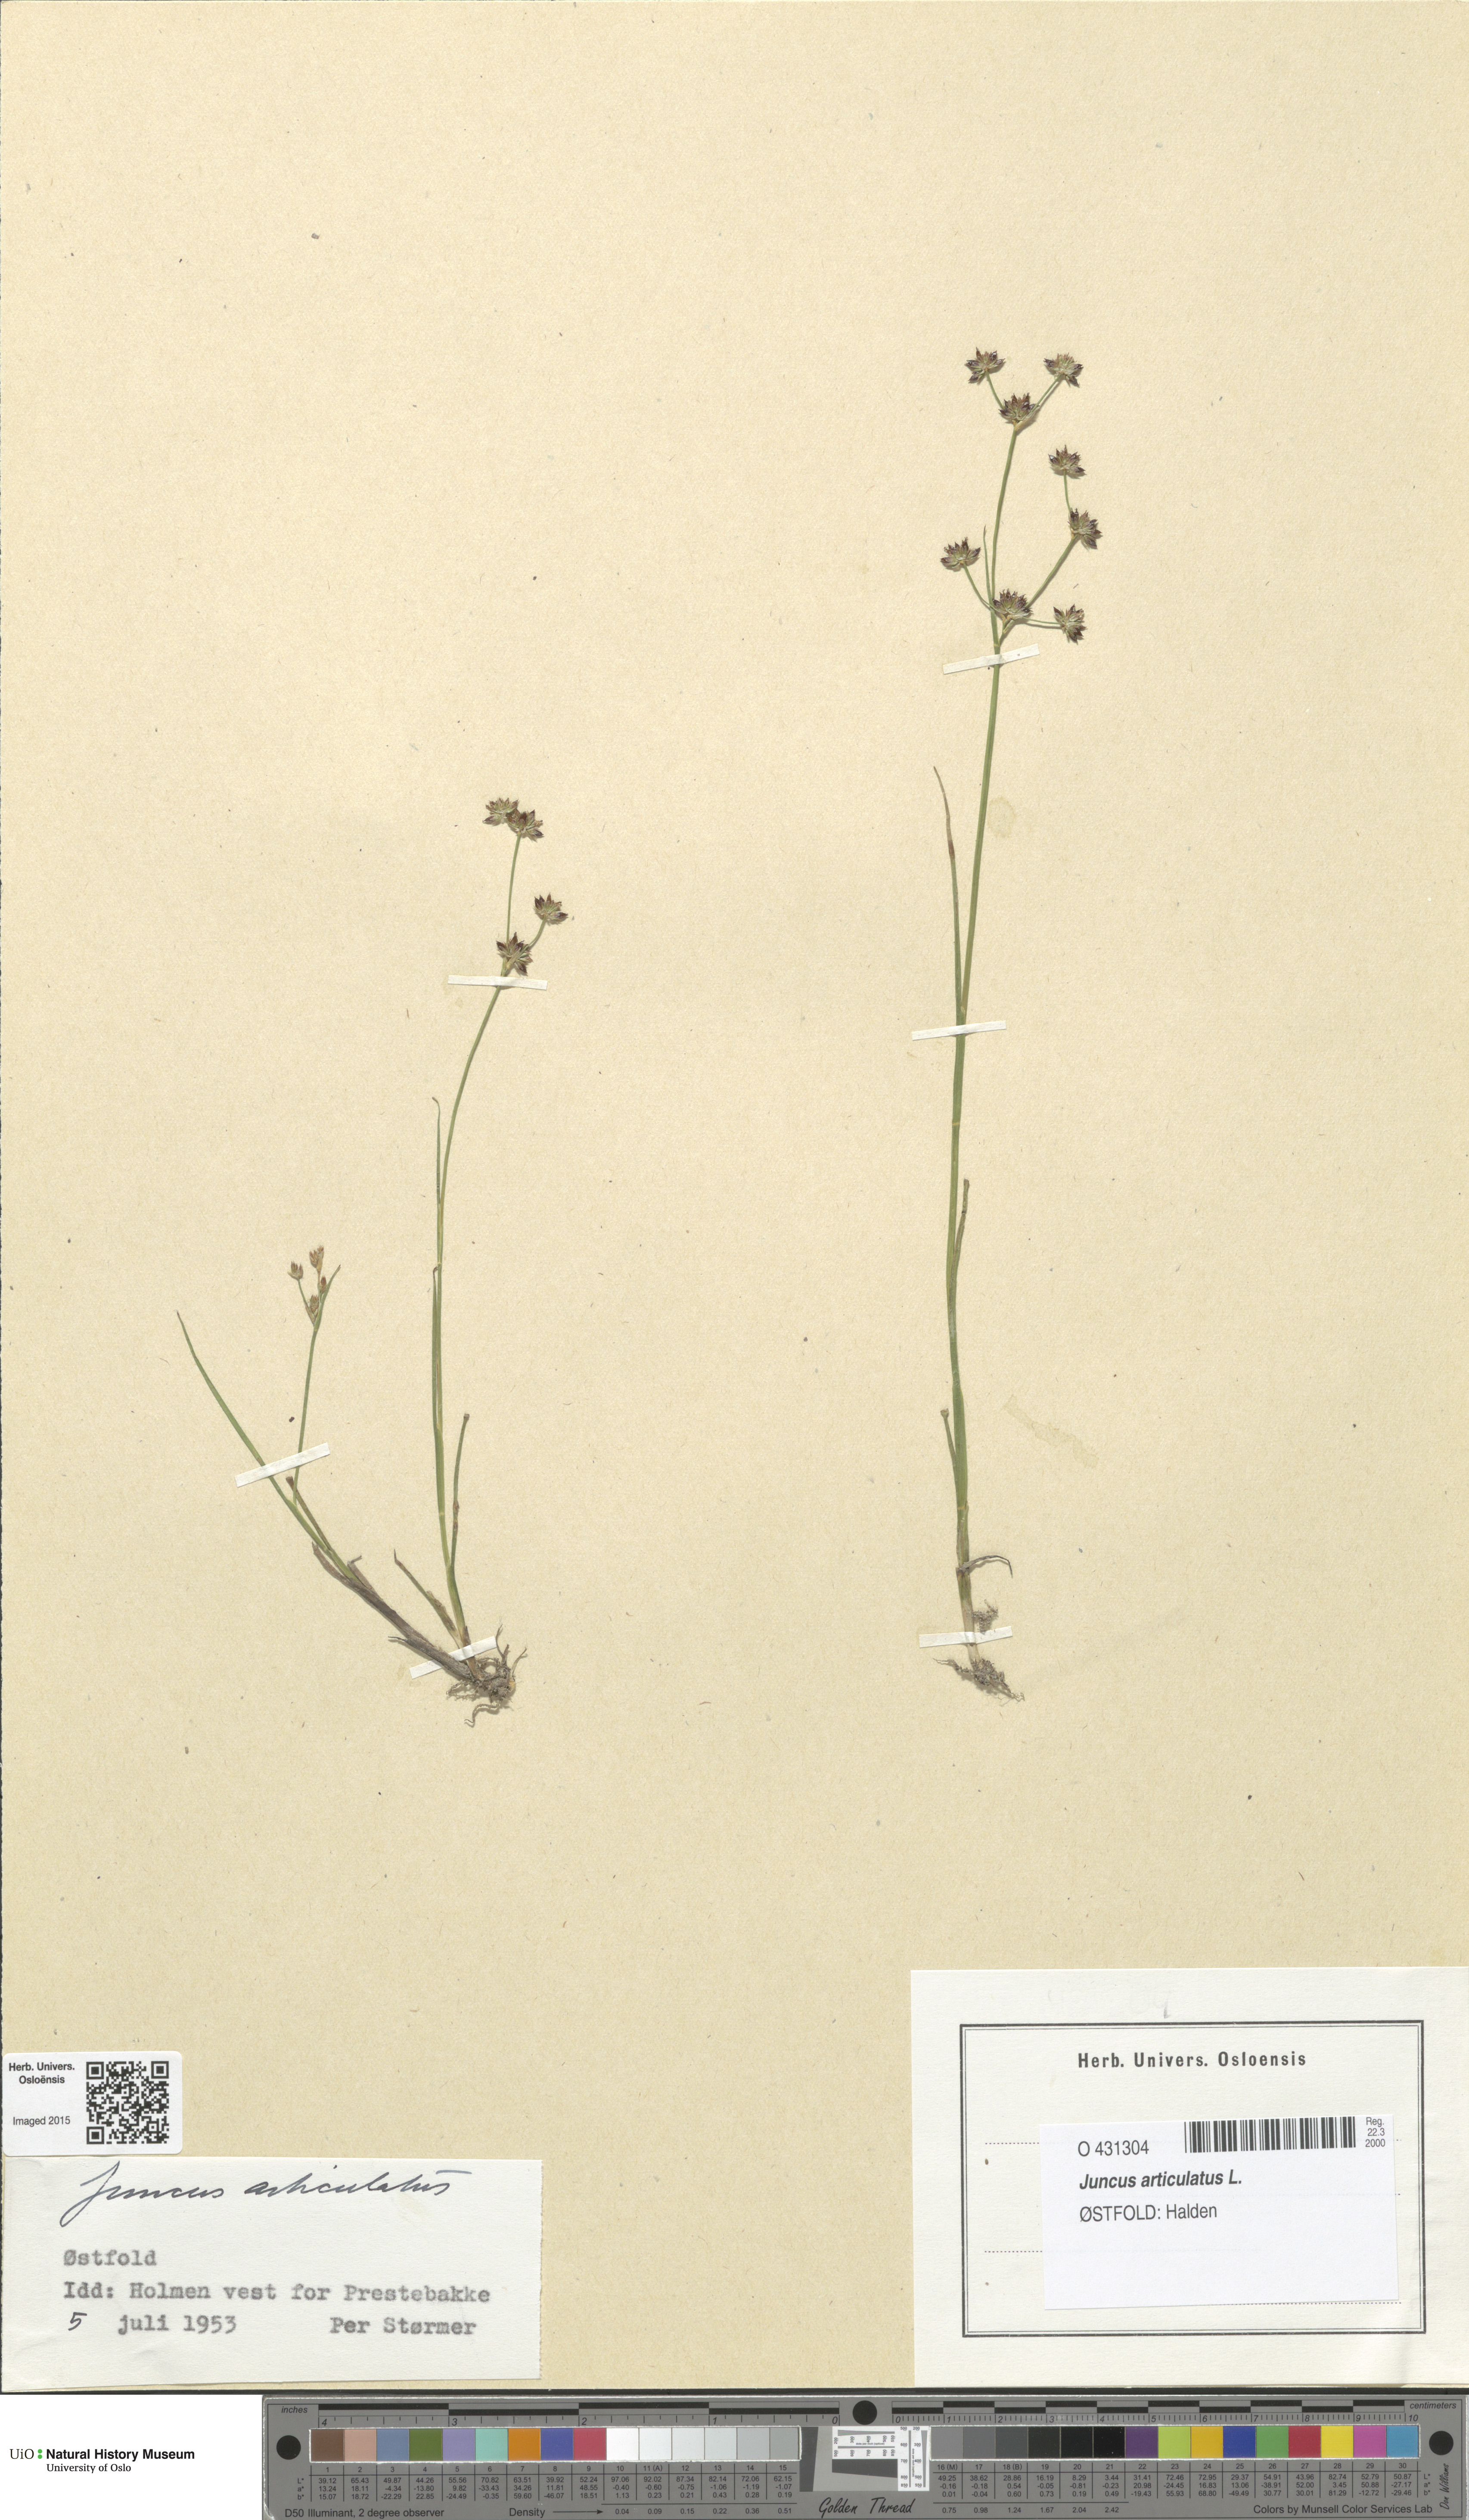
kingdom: Plantae
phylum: Tracheophyta
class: Liliopsida
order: Poales
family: Juncaceae
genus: Juncus
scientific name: Juncus articulatus
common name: Jointed rush
